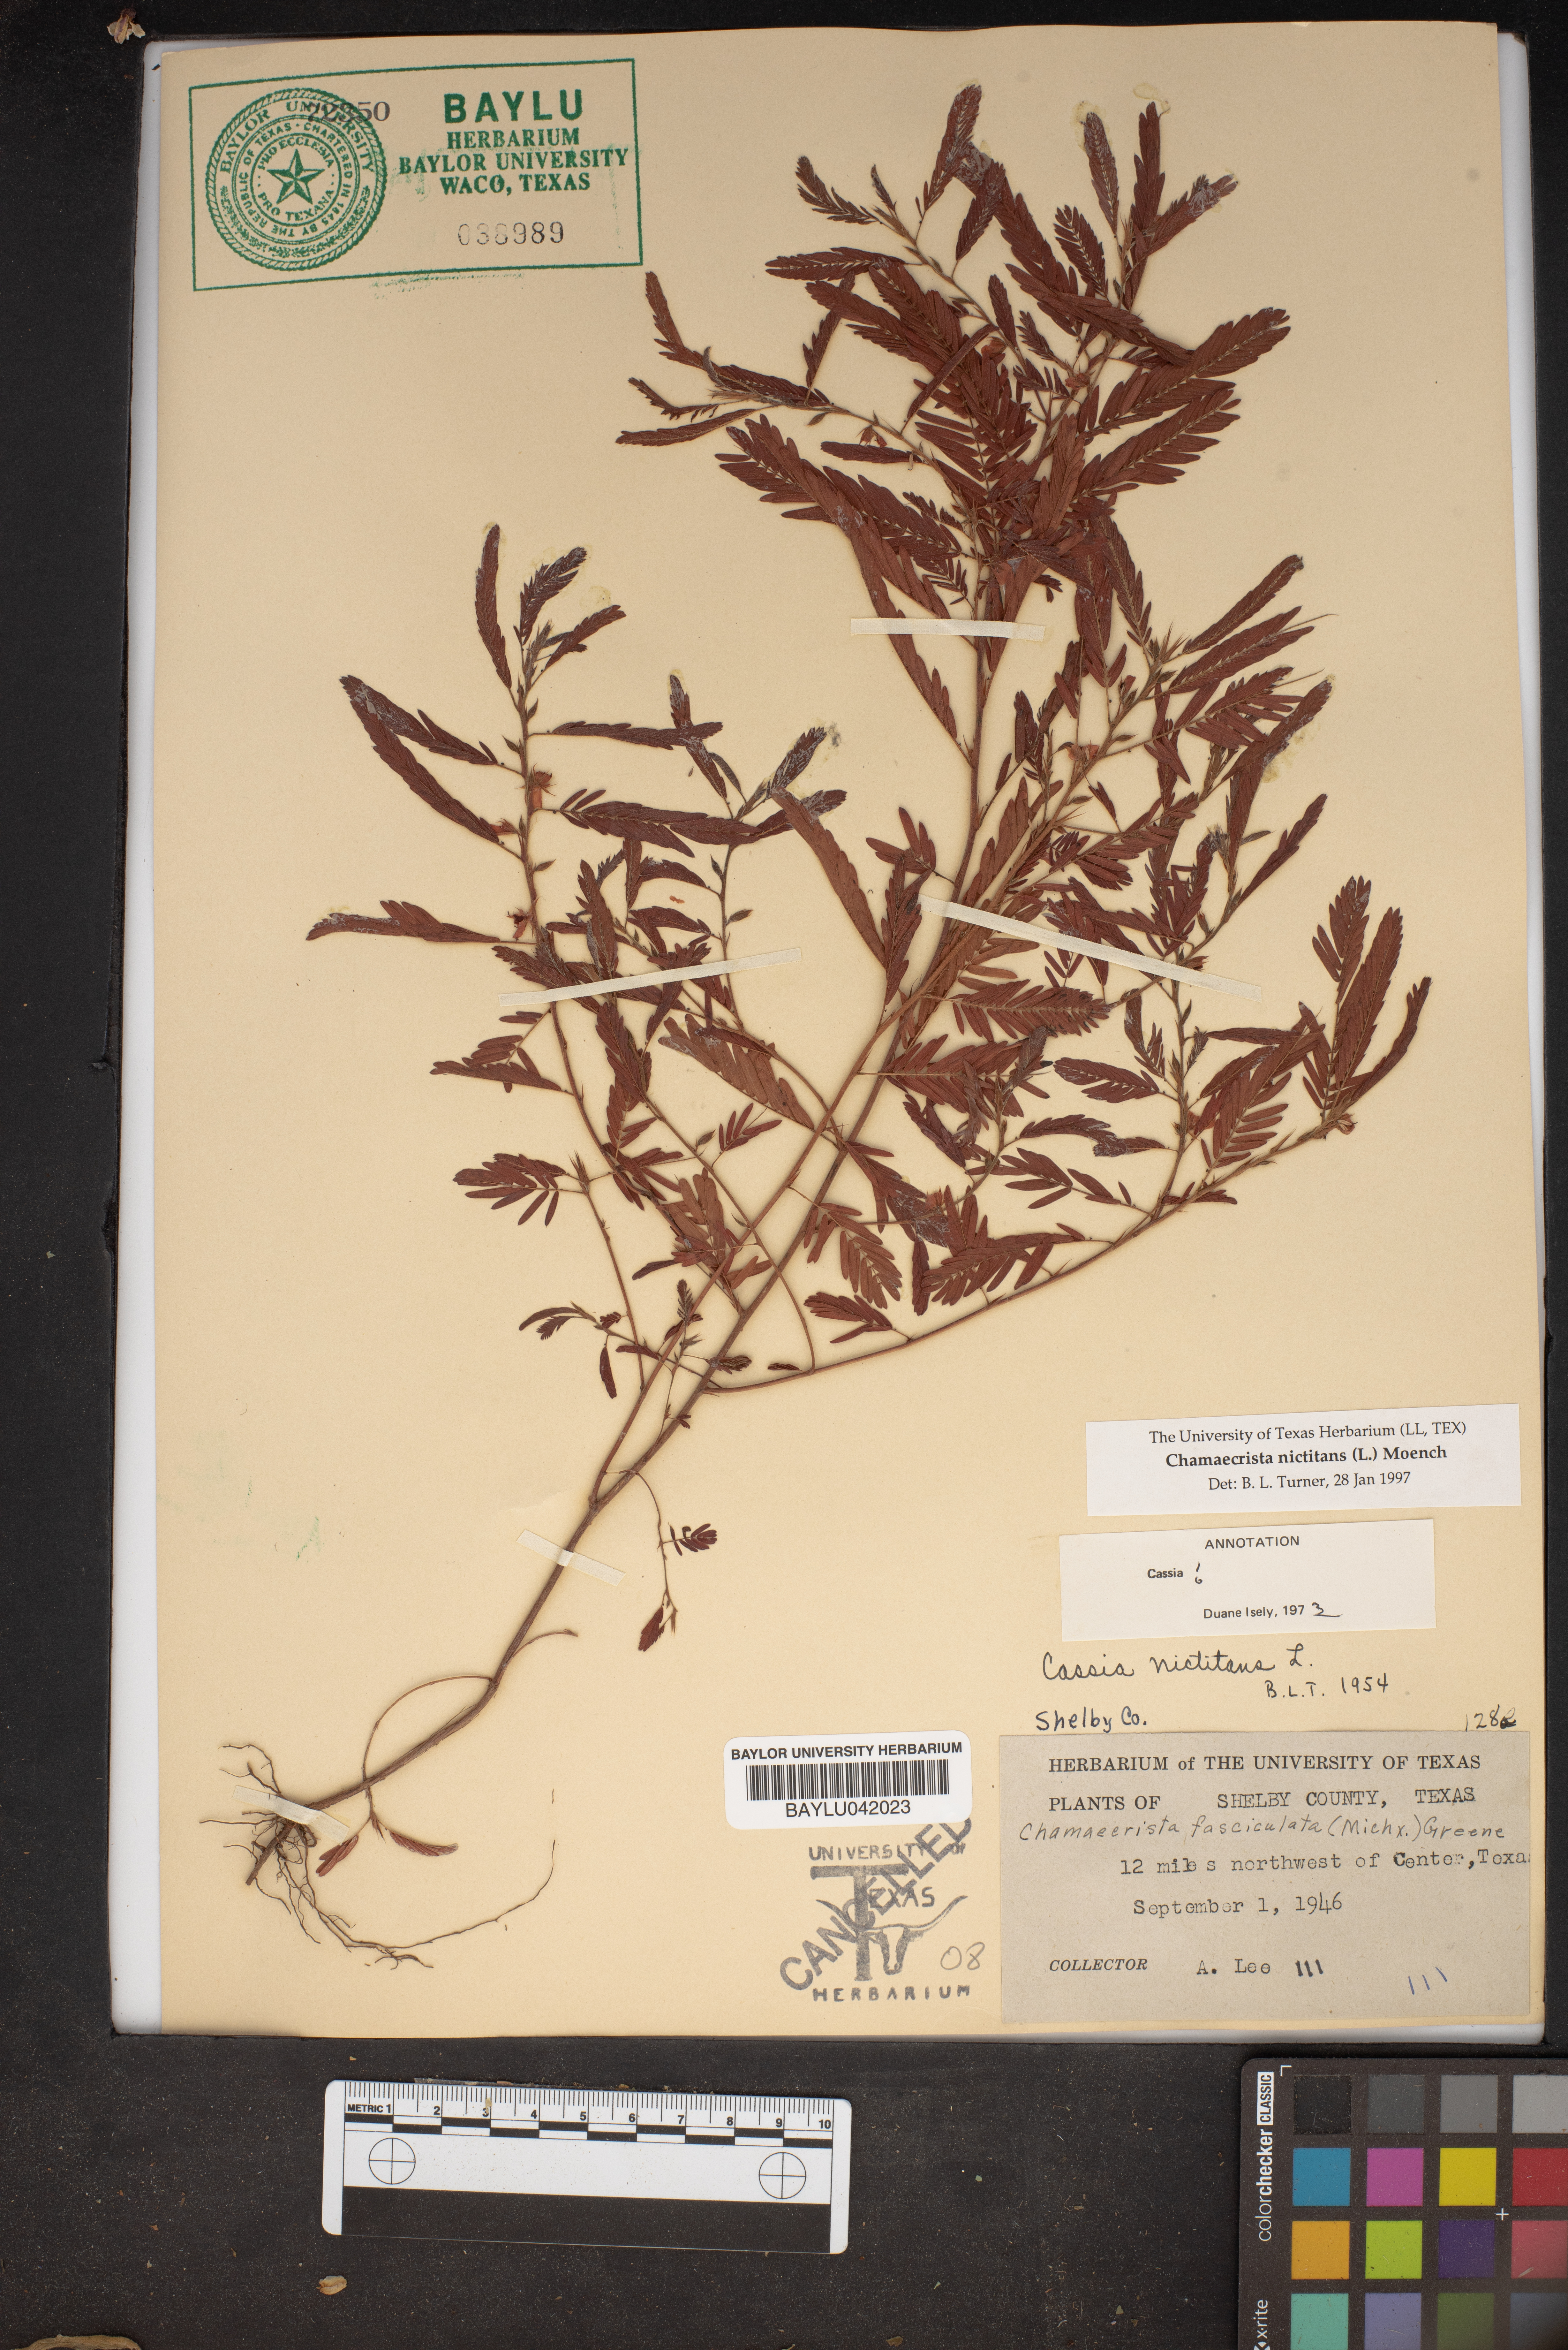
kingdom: Plantae
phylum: Tracheophyta
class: Magnoliopsida
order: Fabales
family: Fabaceae
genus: Chamaecrista
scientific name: Chamaecrista nictitans
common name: Sensitive cassia
